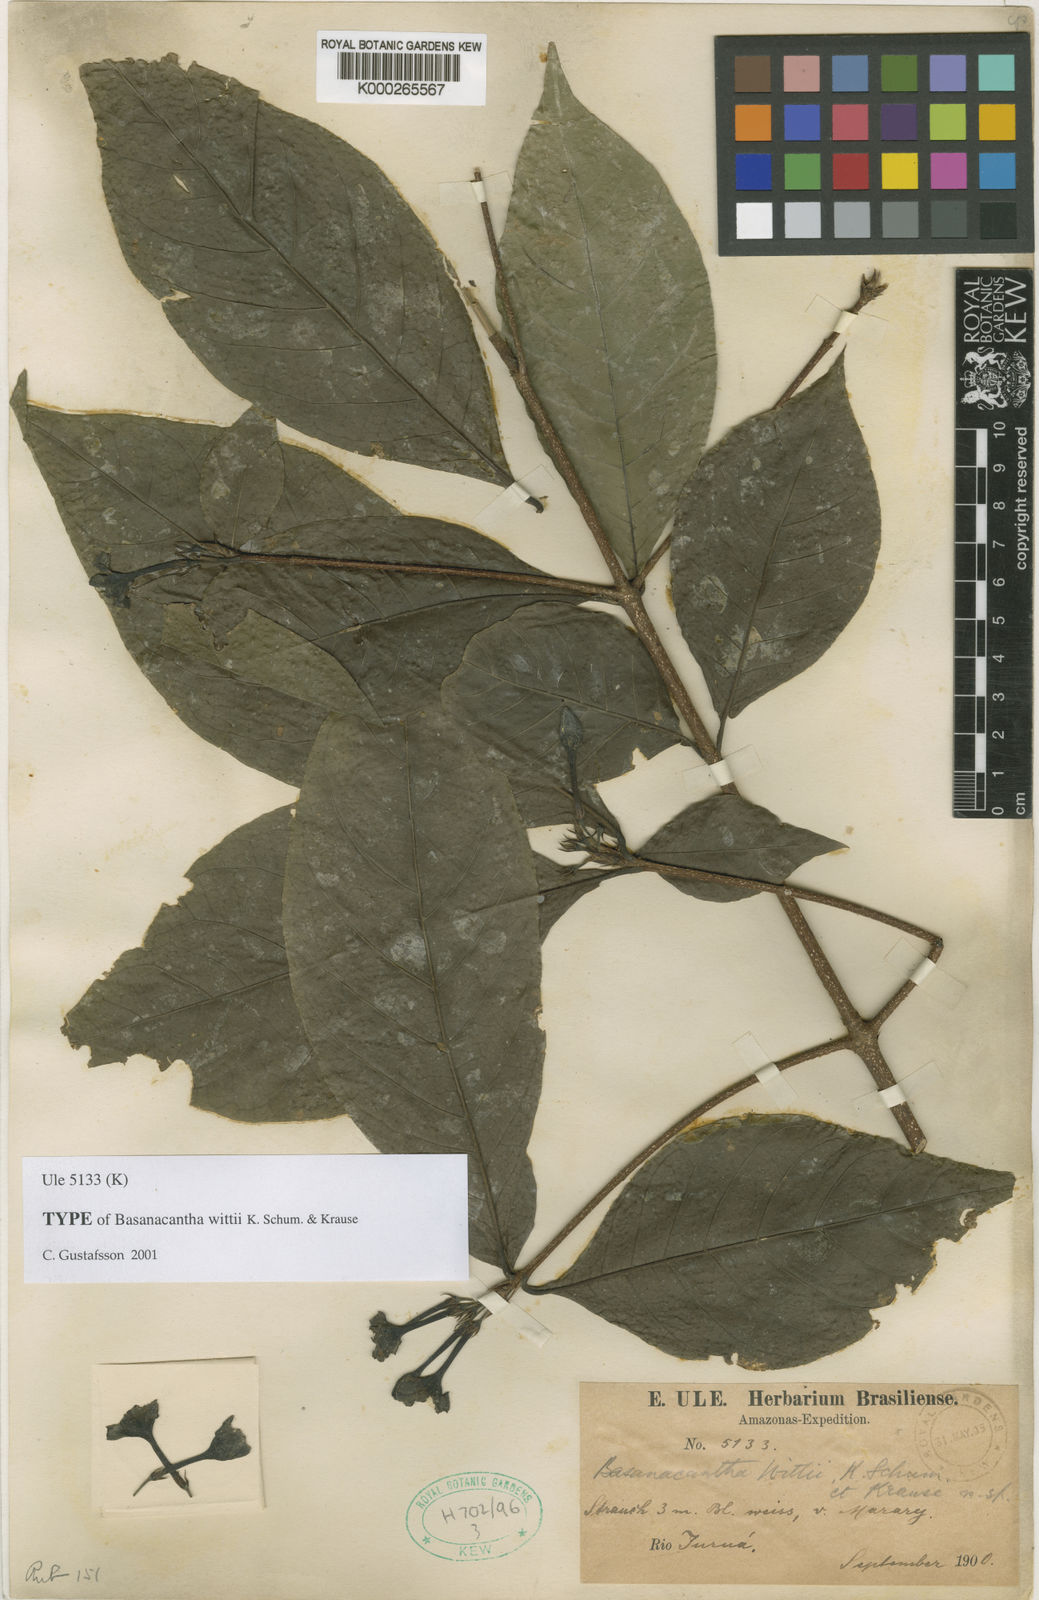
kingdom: Plantae
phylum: Tracheophyta
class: Magnoliopsida
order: Gentianales
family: Rubiaceae
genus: Randia
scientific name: Randia ulei
